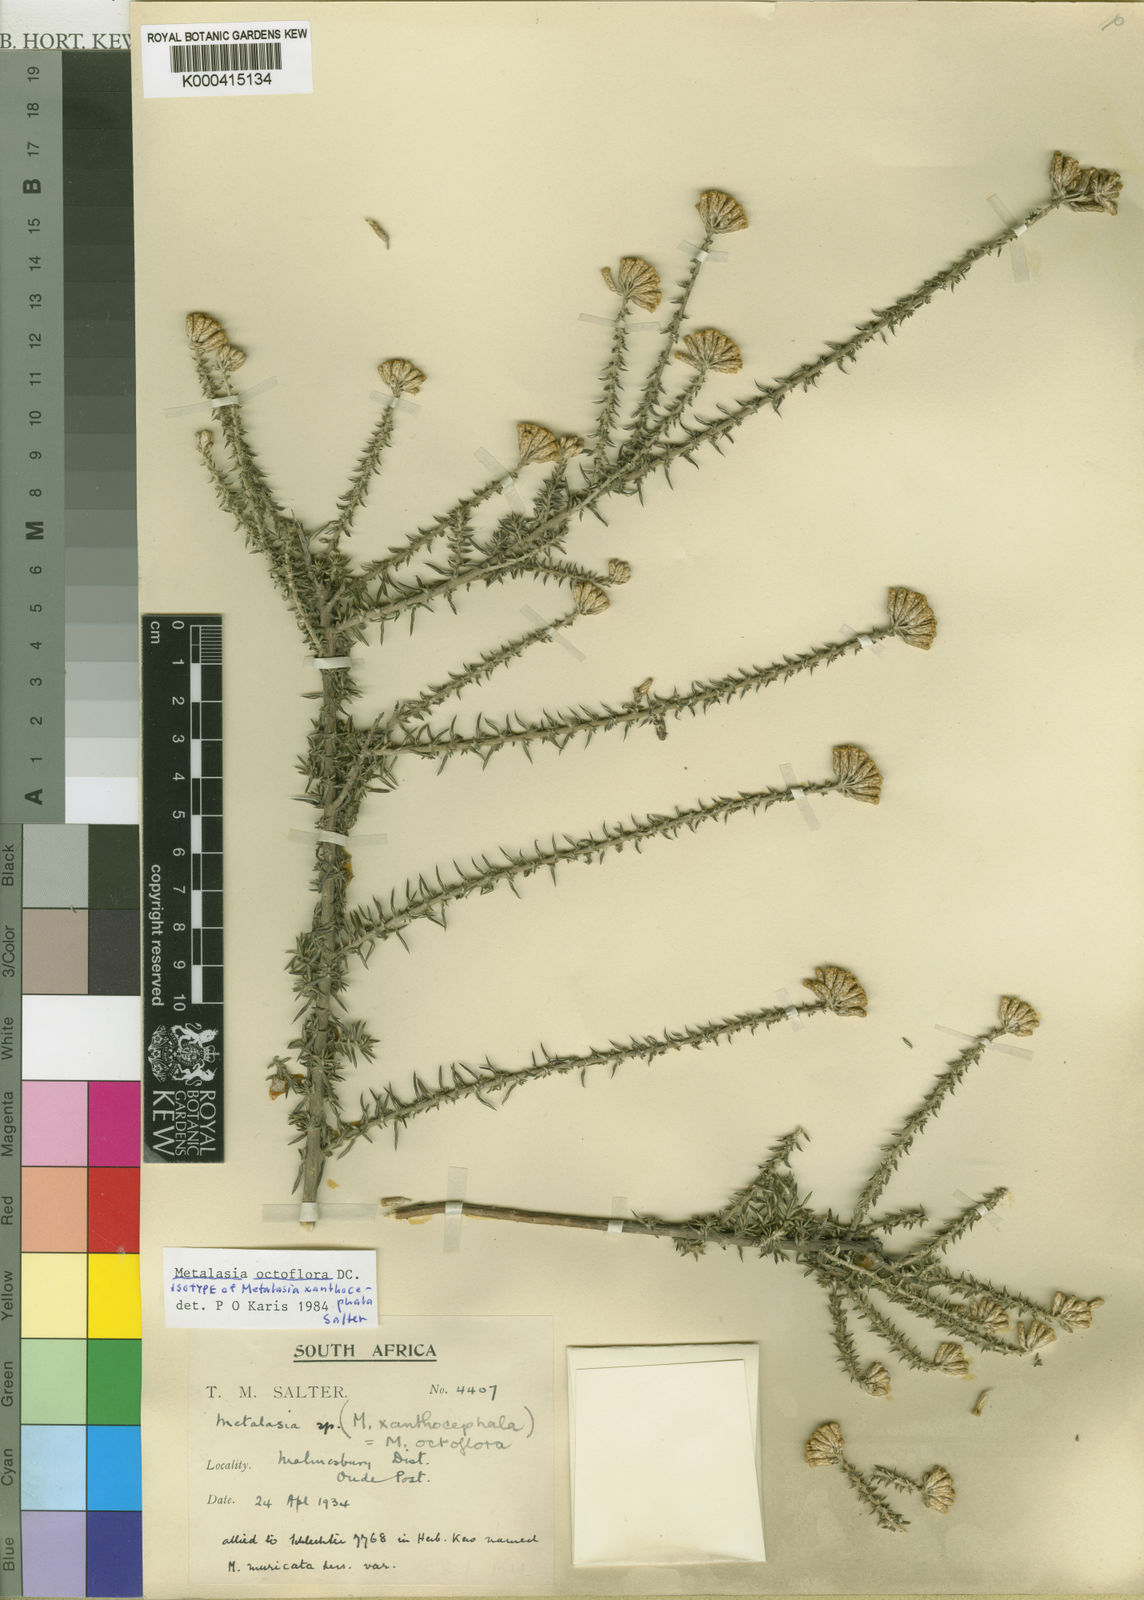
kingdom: Plantae
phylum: Tracheophyta
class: Magnoliopsida
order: Asterales
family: Asteraceae
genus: Metalasia
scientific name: Metalasia octoflora
